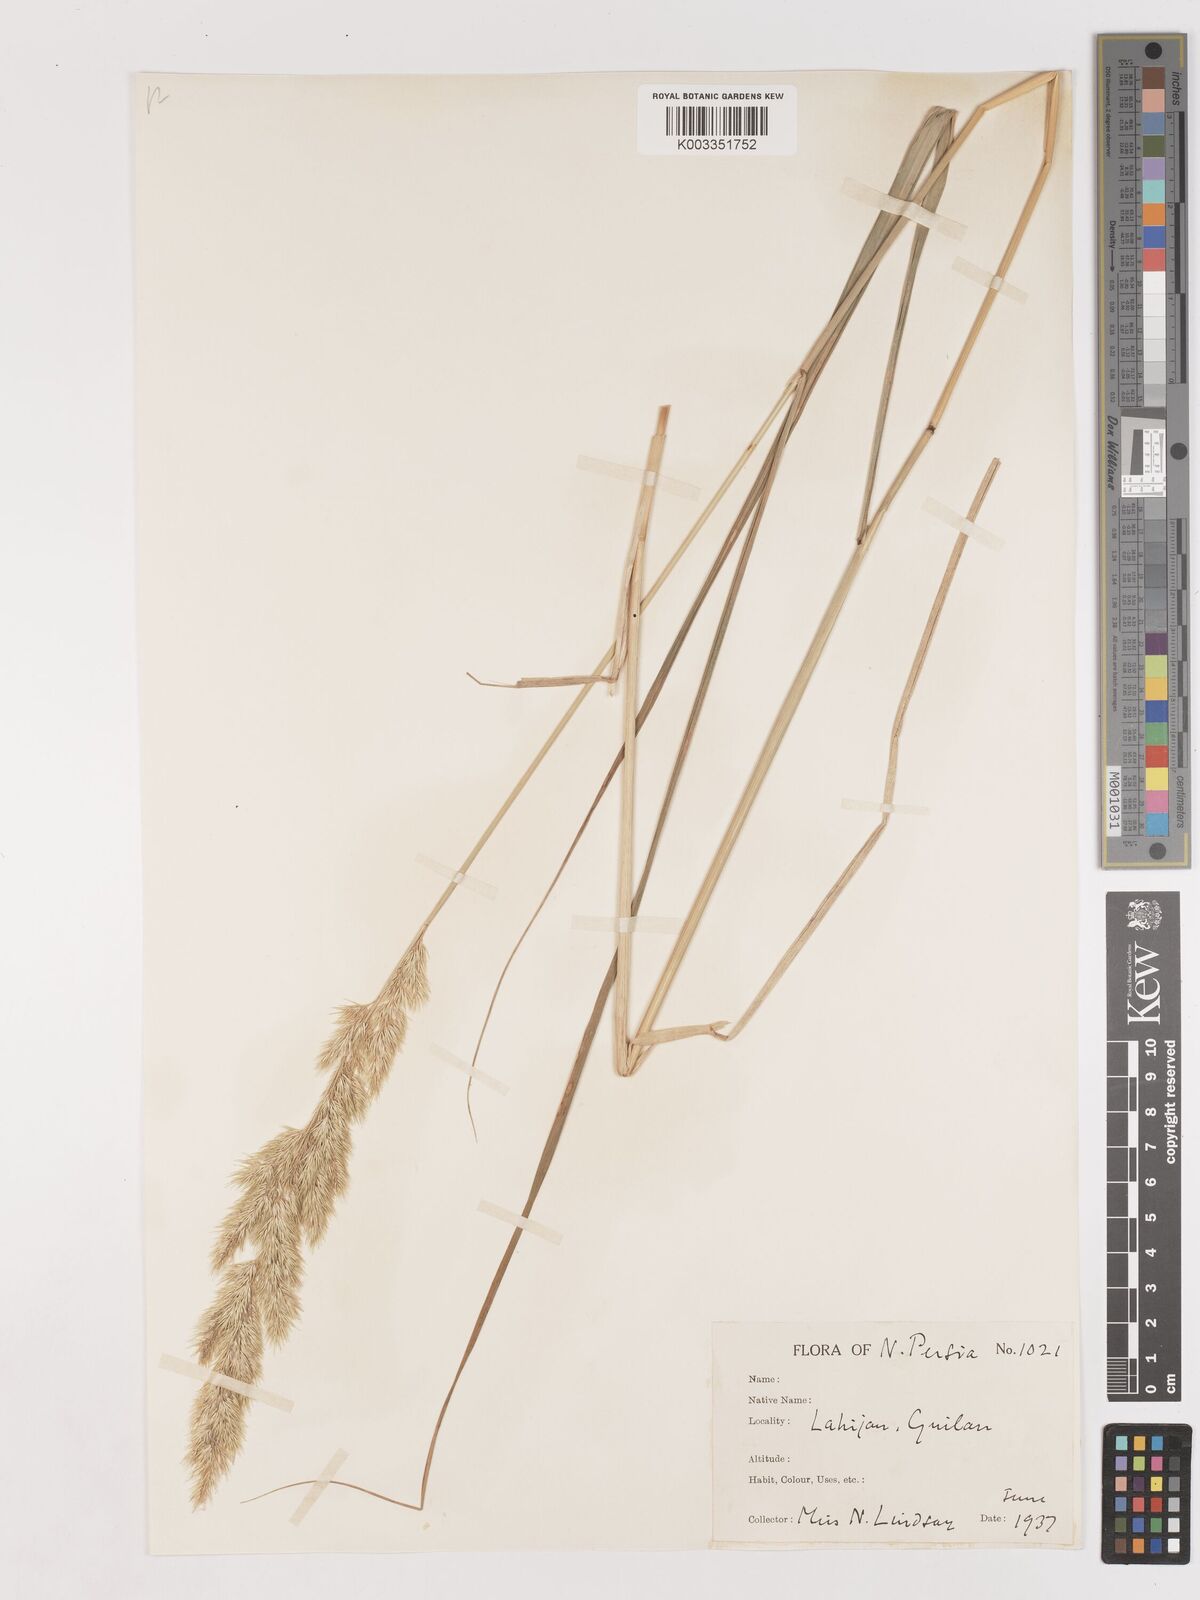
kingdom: Plantae
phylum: Tracheophyta
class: Liliopsida
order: Poales
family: Poaceae
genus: Calamagrostis
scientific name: Calamagrostis
